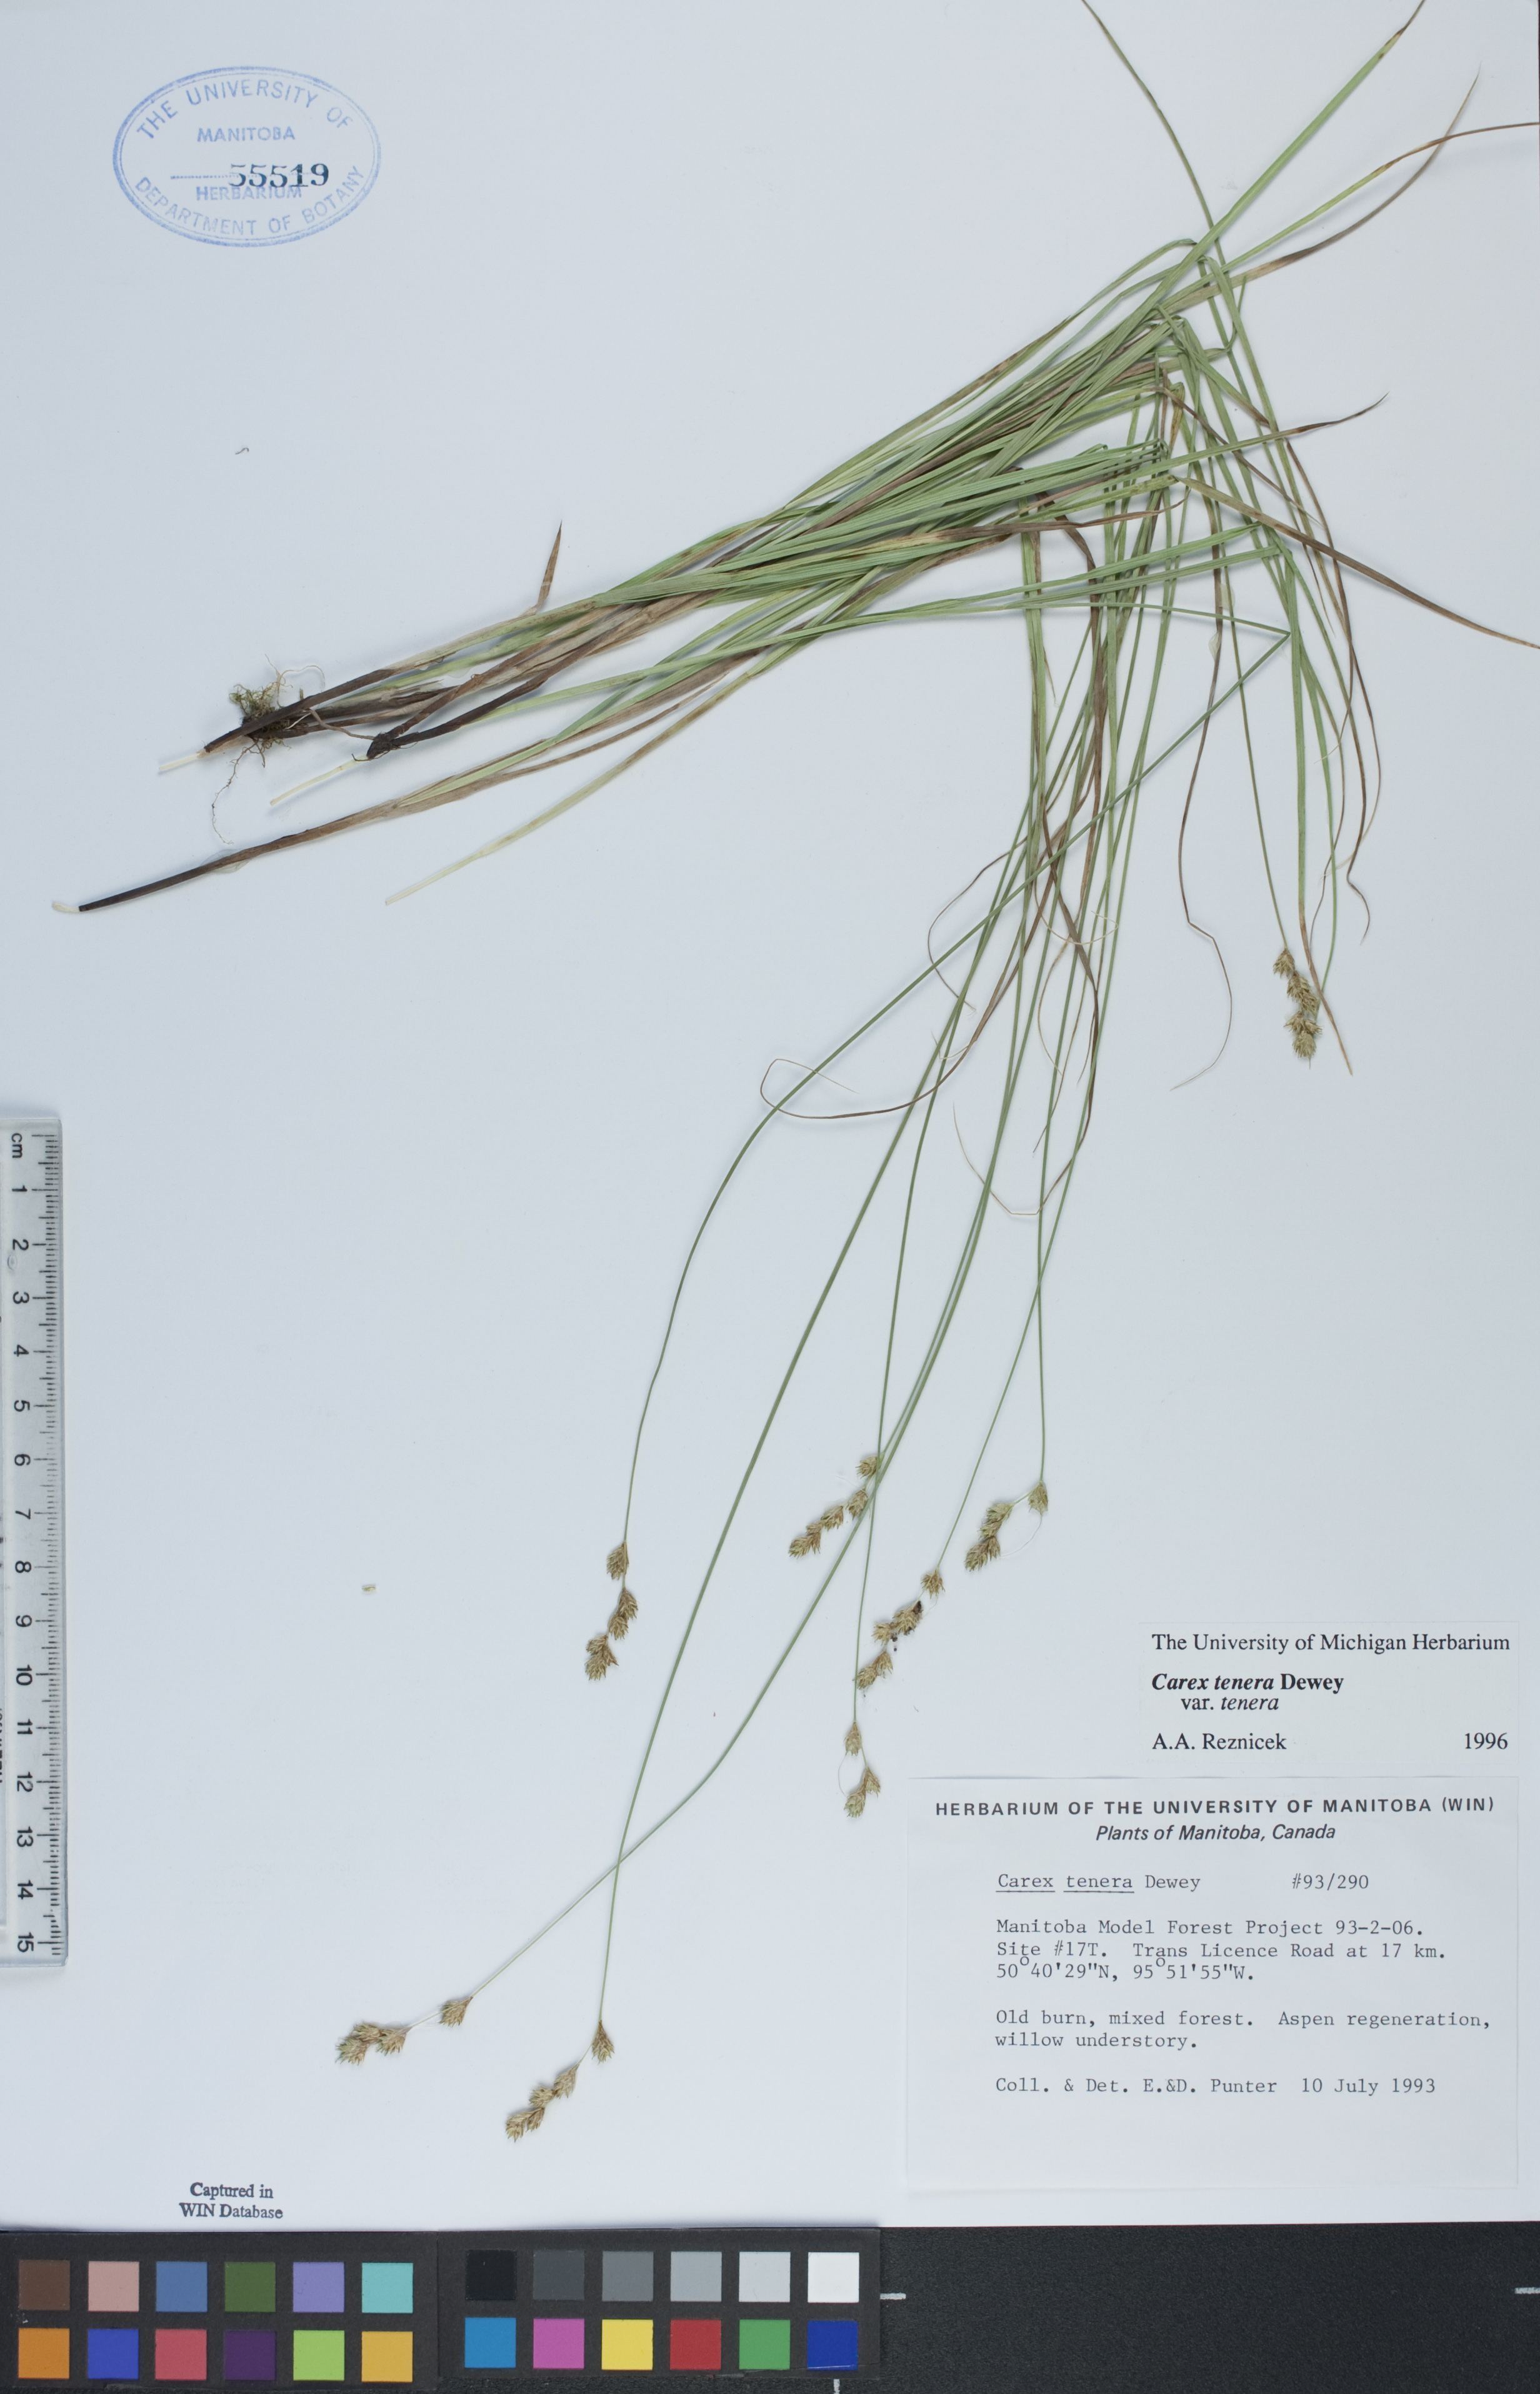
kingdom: Plantae
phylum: Tracheophyta
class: Liliopsida
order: Poales
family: Cyperaceae
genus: Carex
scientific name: Carex tenera
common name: Broad-fruited sedge
